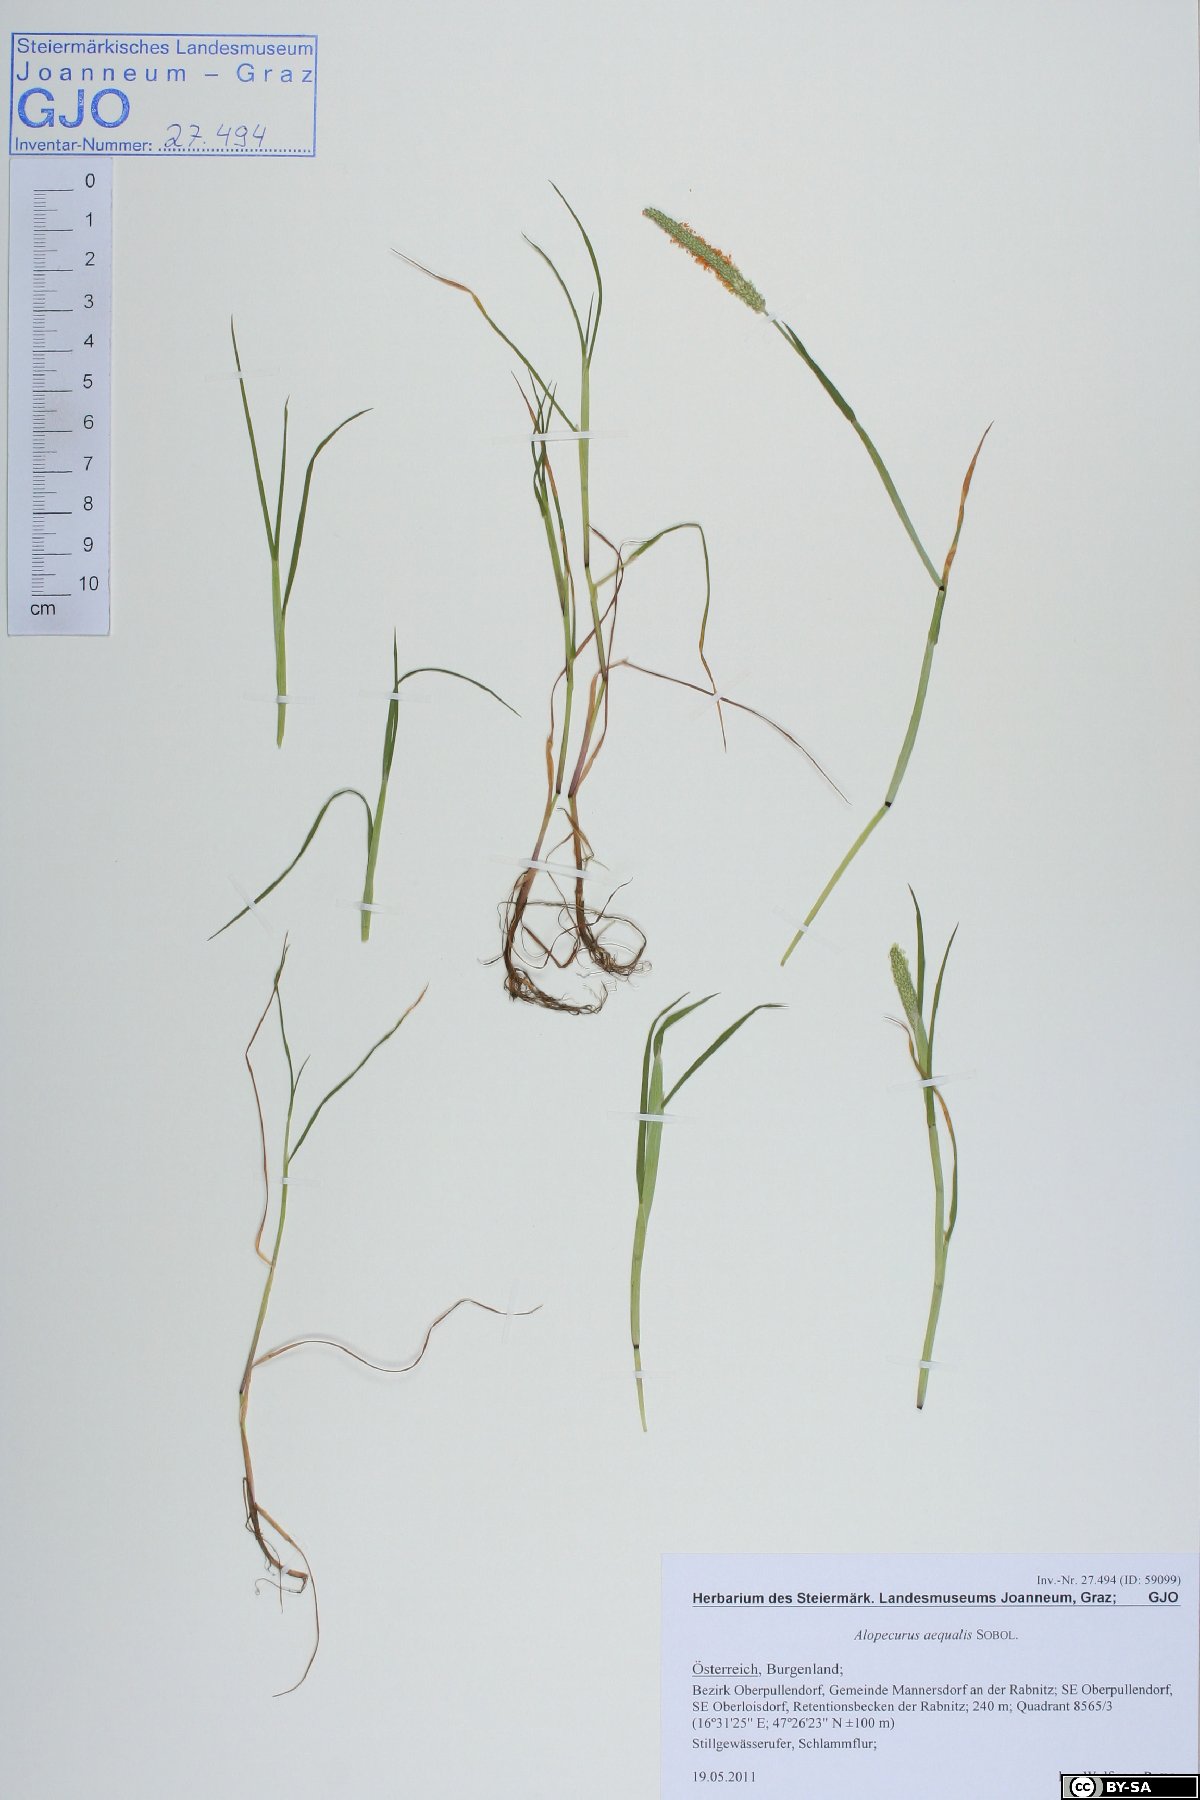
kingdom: Plantae
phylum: Tracheophyta
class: Liliopsida
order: Poales
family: Poaceae
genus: Alopecurus
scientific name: Alopecurus aequalis
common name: Orange foxtail
